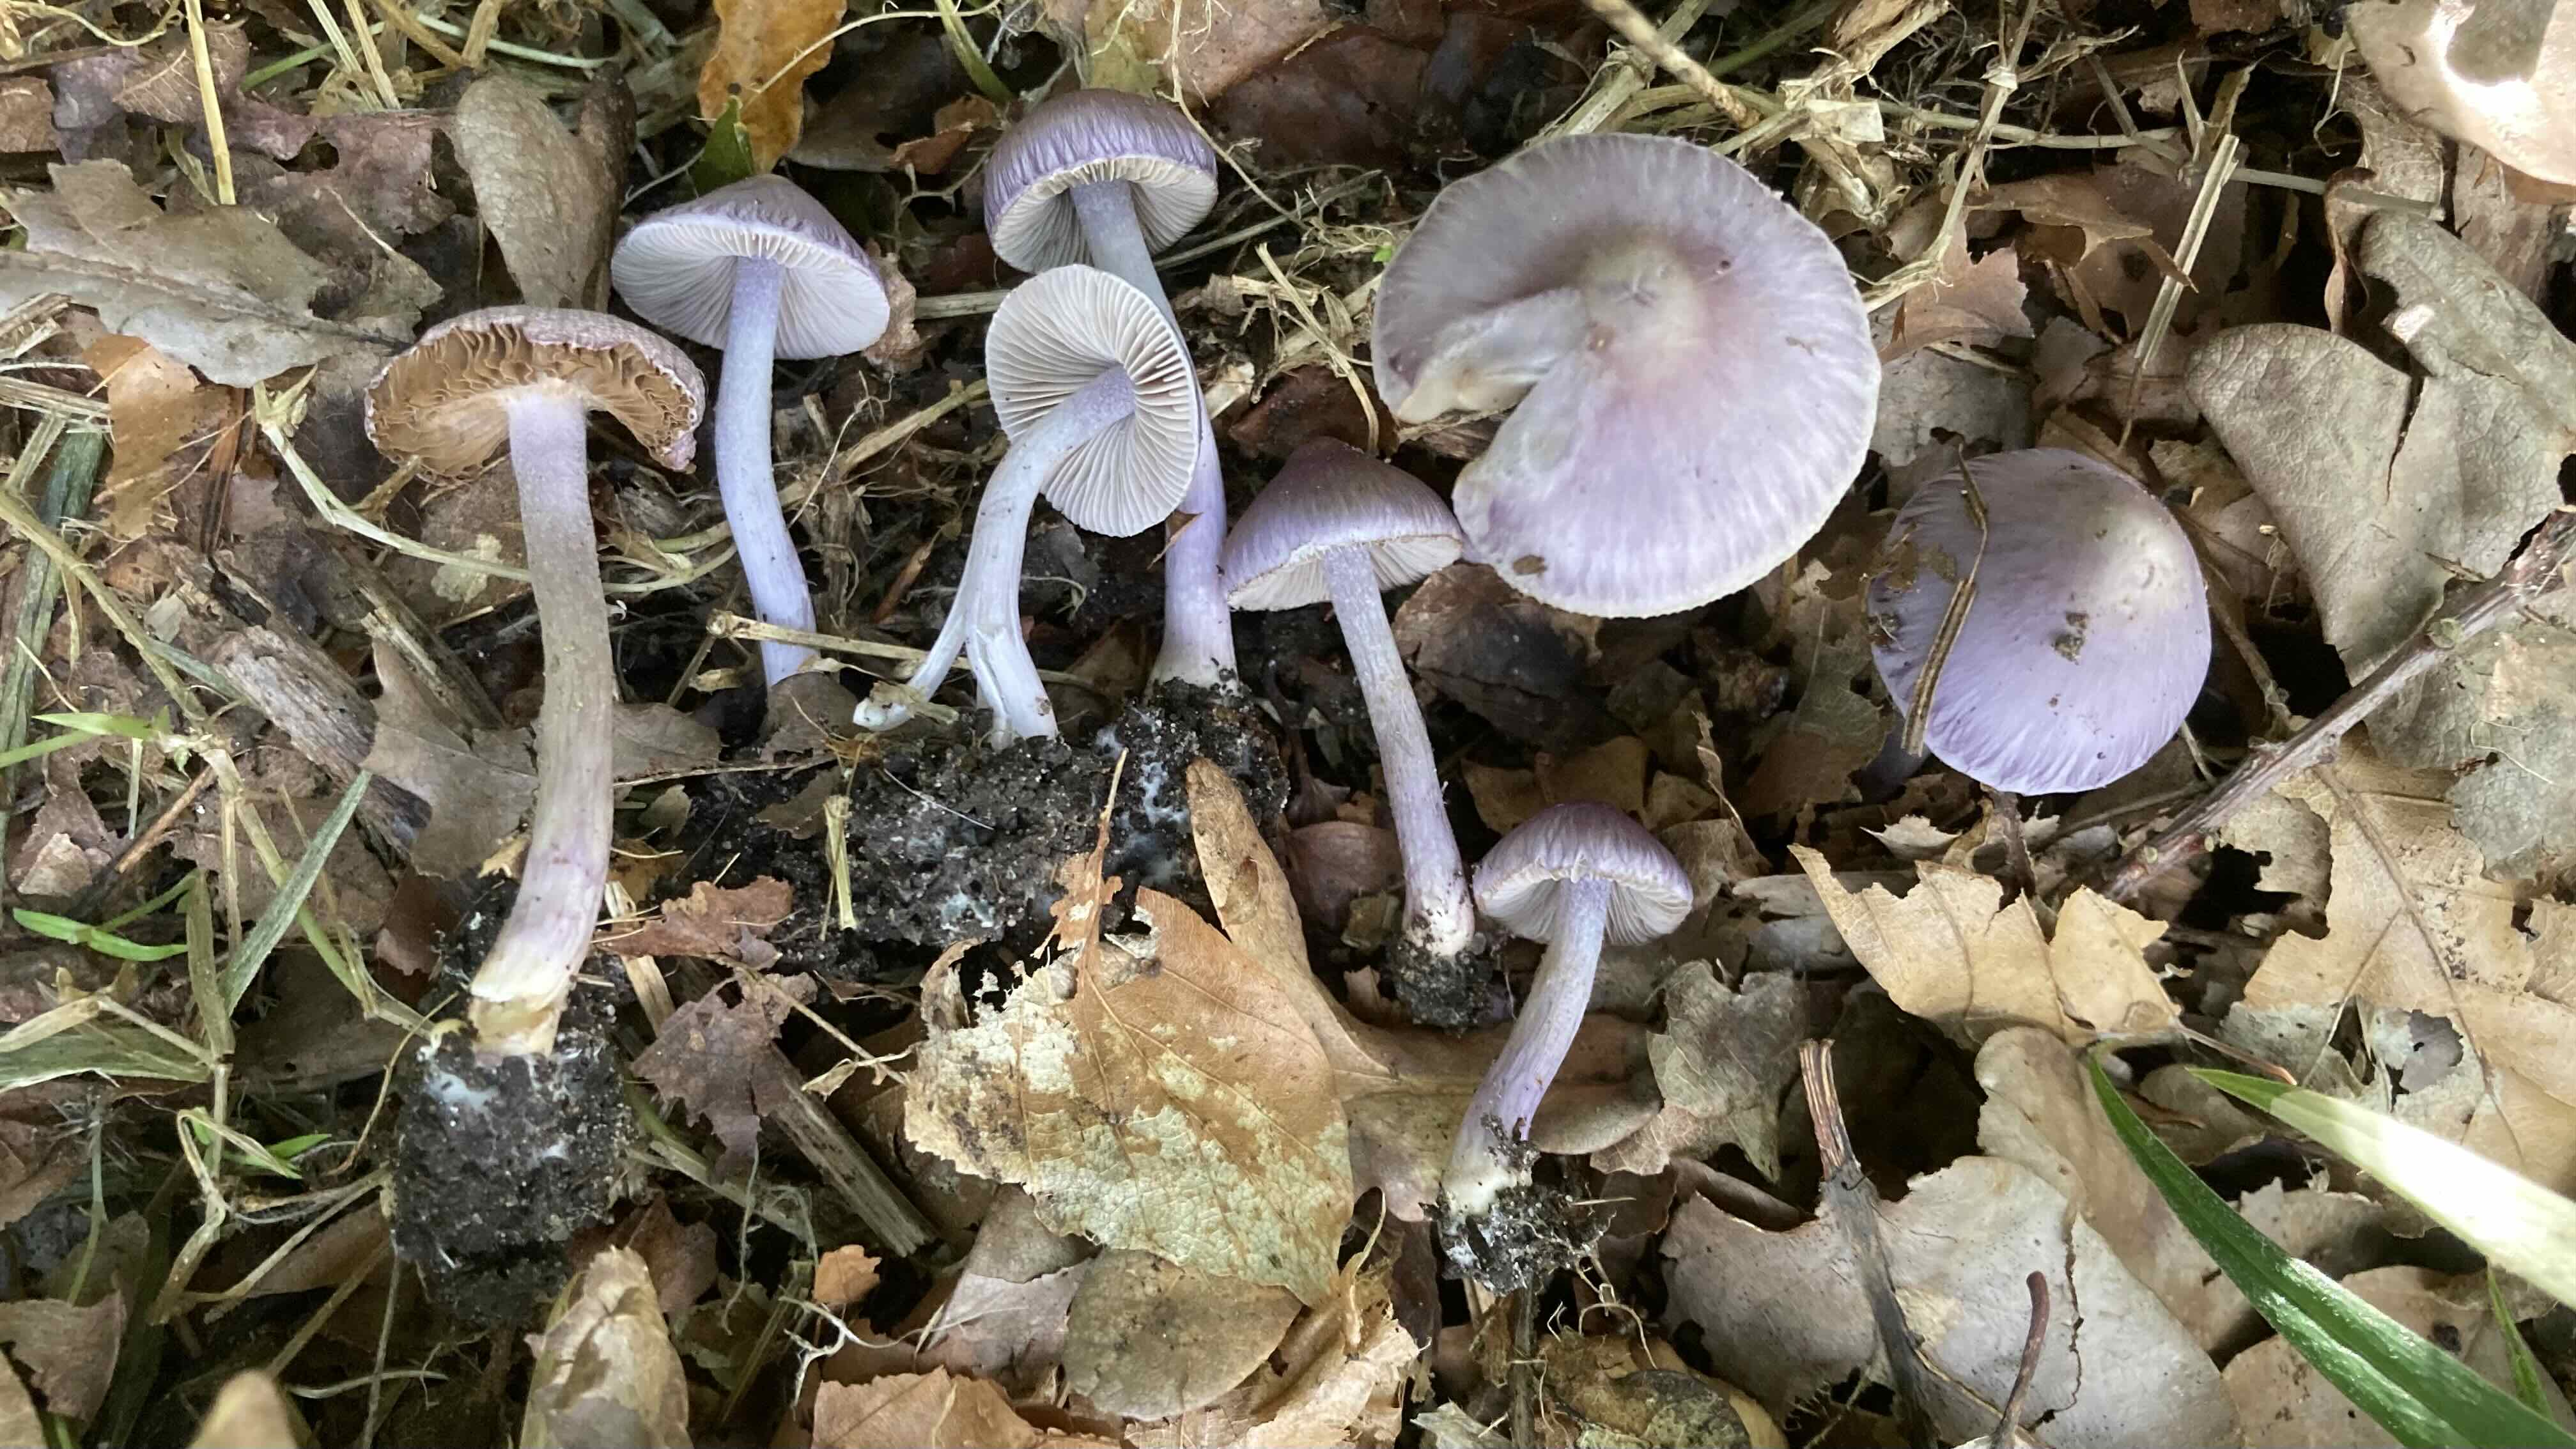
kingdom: Fungi
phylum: Basidiomycota
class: Agaricomycetes
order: Agaricales
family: Inocybaceae
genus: Inocybe
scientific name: Inocybe geophylla
